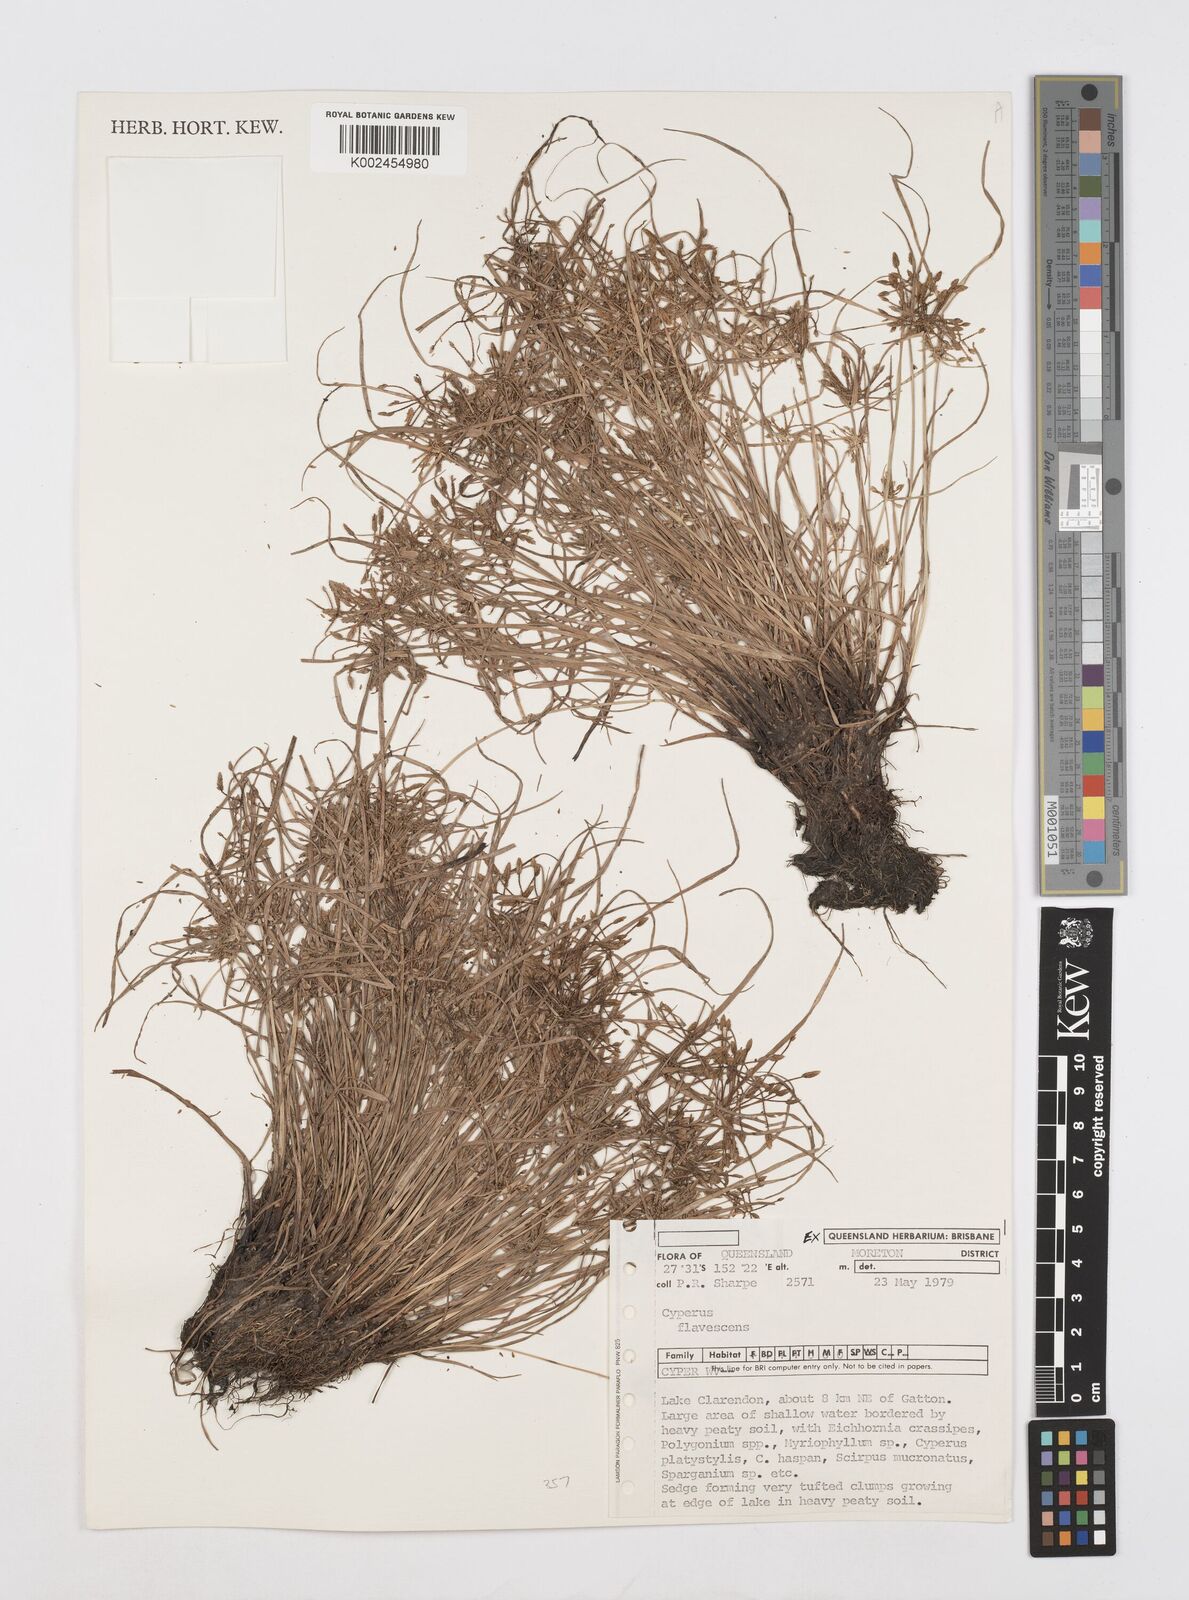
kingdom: Plantae
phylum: Tracheophyta
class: Liliopsida
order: Poales
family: Cyperaceae
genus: Cyperus
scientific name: Cyperus flavescens
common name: Yellow galingale
